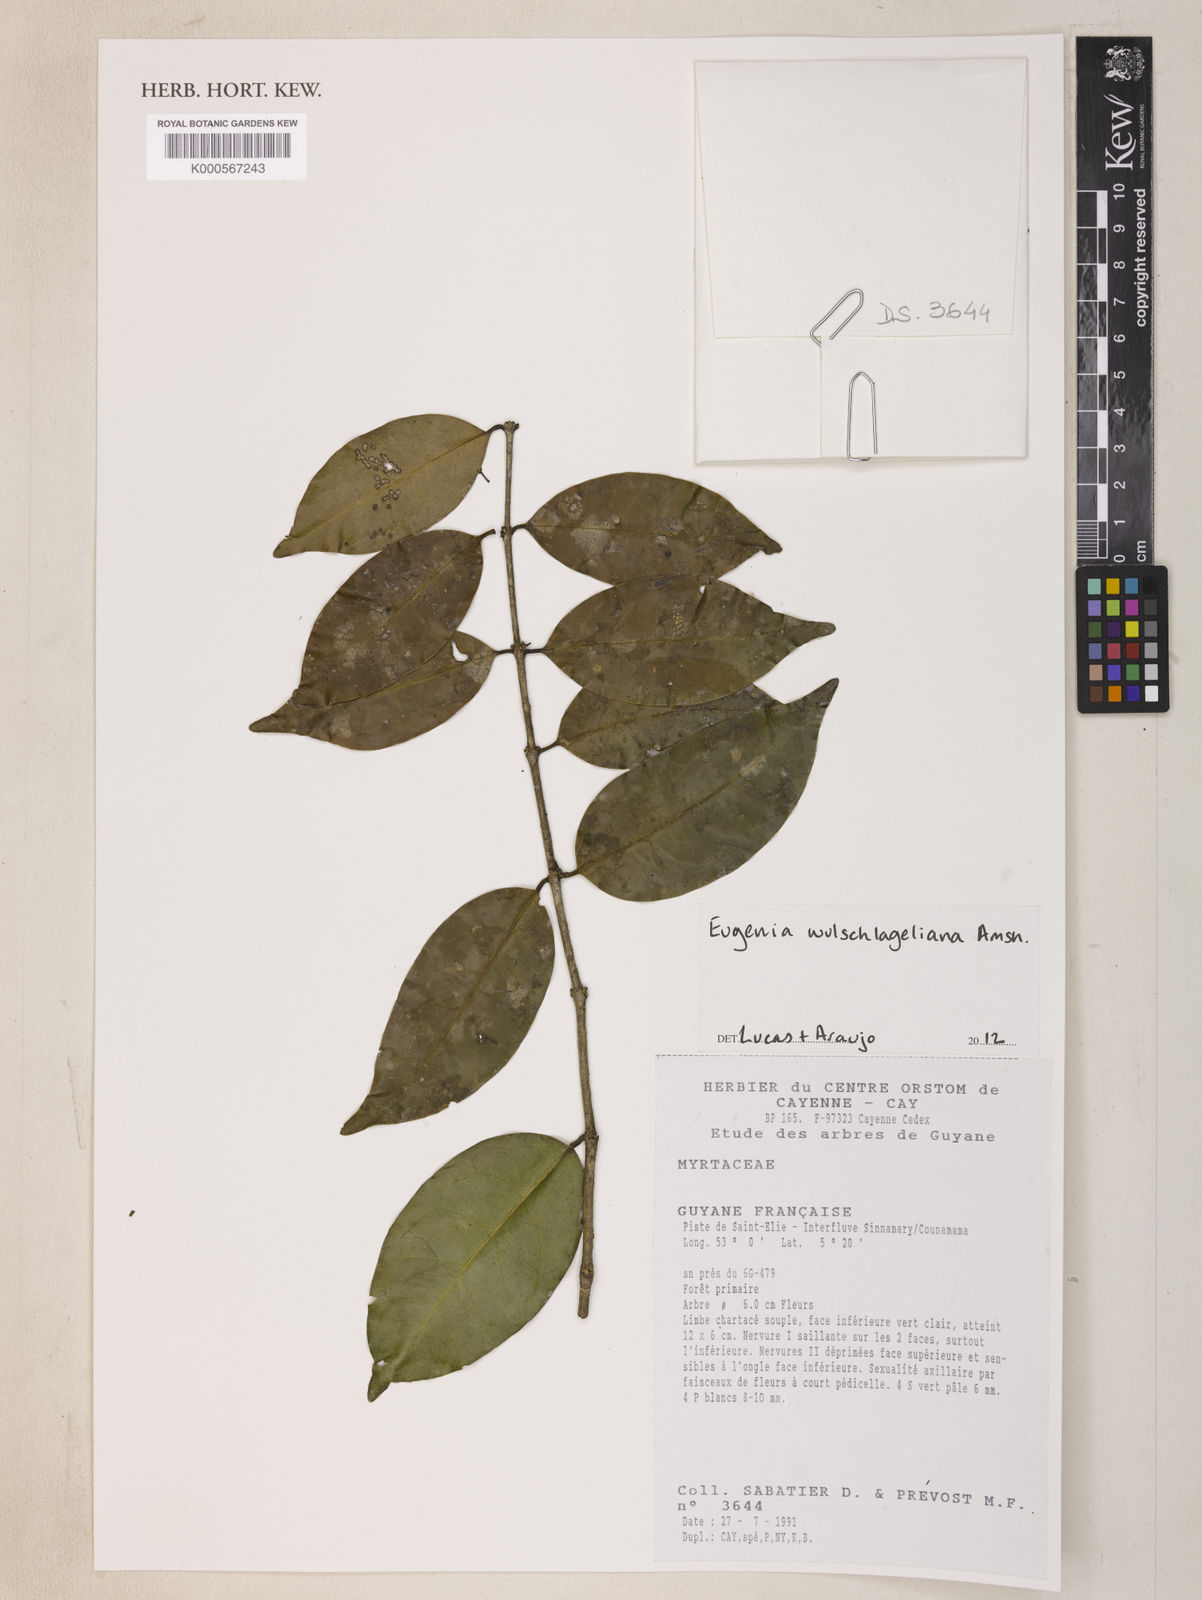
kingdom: Plantae
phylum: Tracheophyta
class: Magnoliopsida
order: Myrtales
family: Myrtaceae
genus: Eugenia
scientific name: Eugenia
